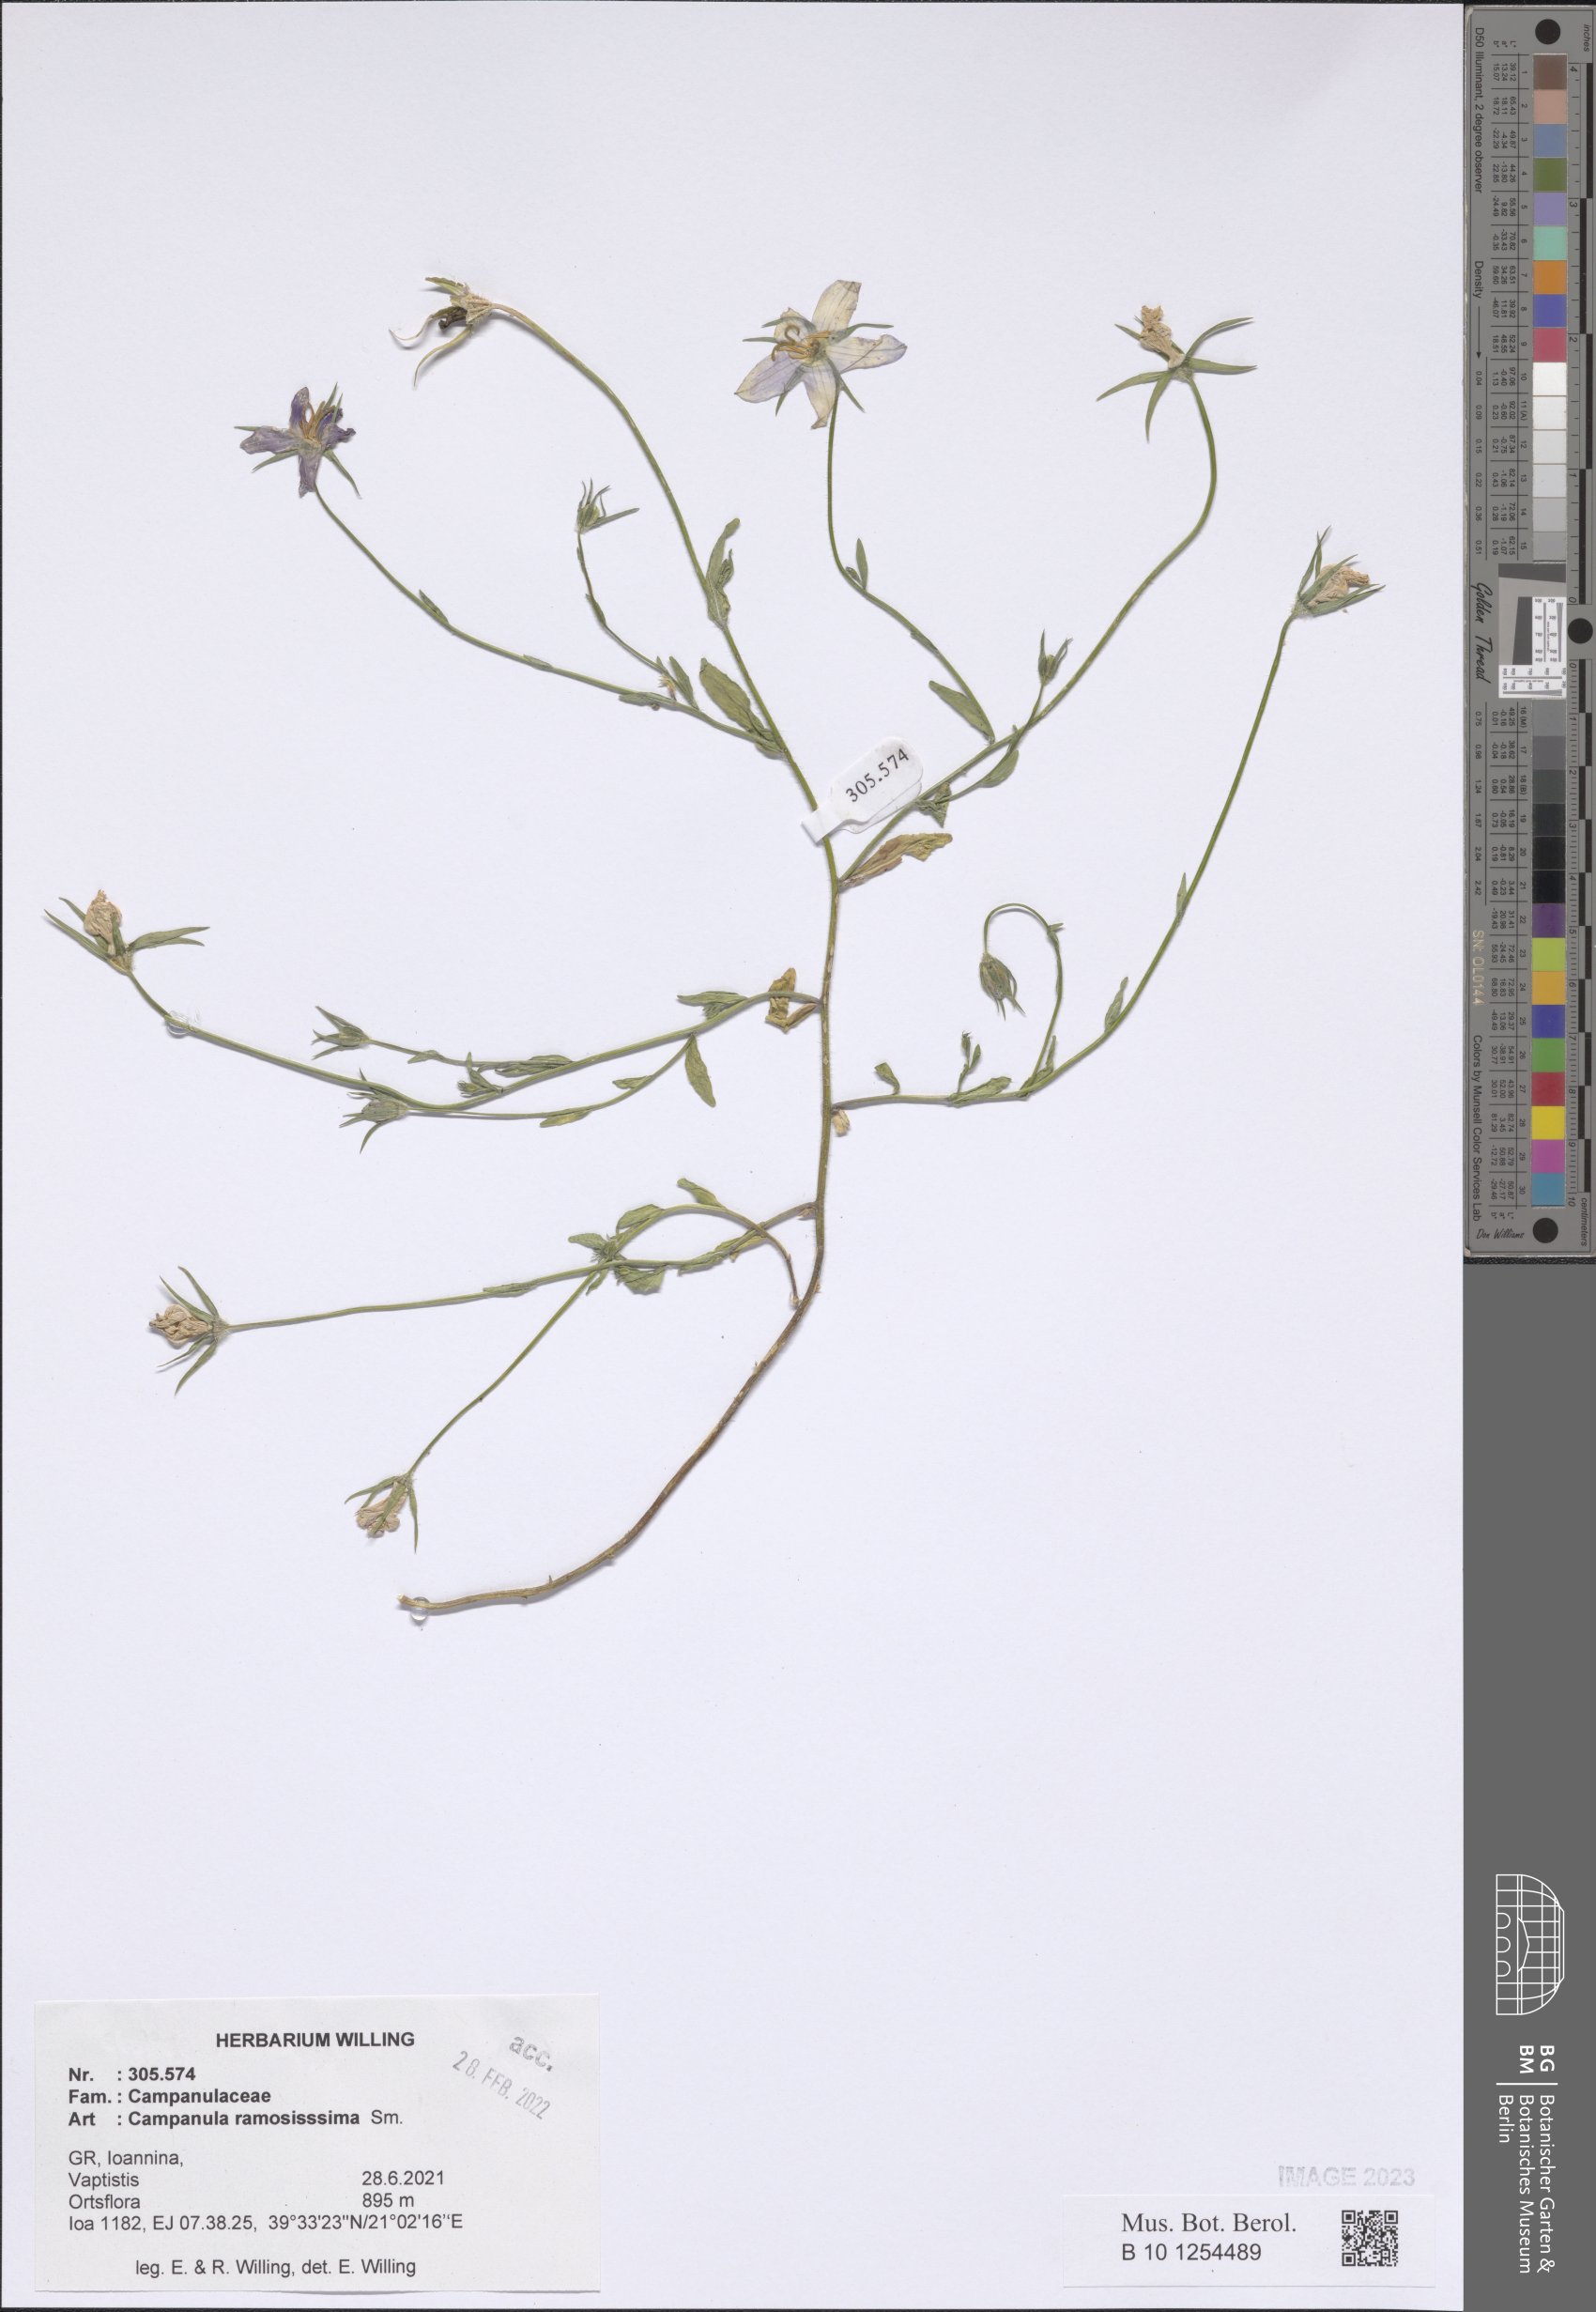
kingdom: Plantae
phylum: Tracheophyta
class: Magnoliopsida
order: Asterales
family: Campanulaceae
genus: Campanula
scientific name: Campanula ramosissima
